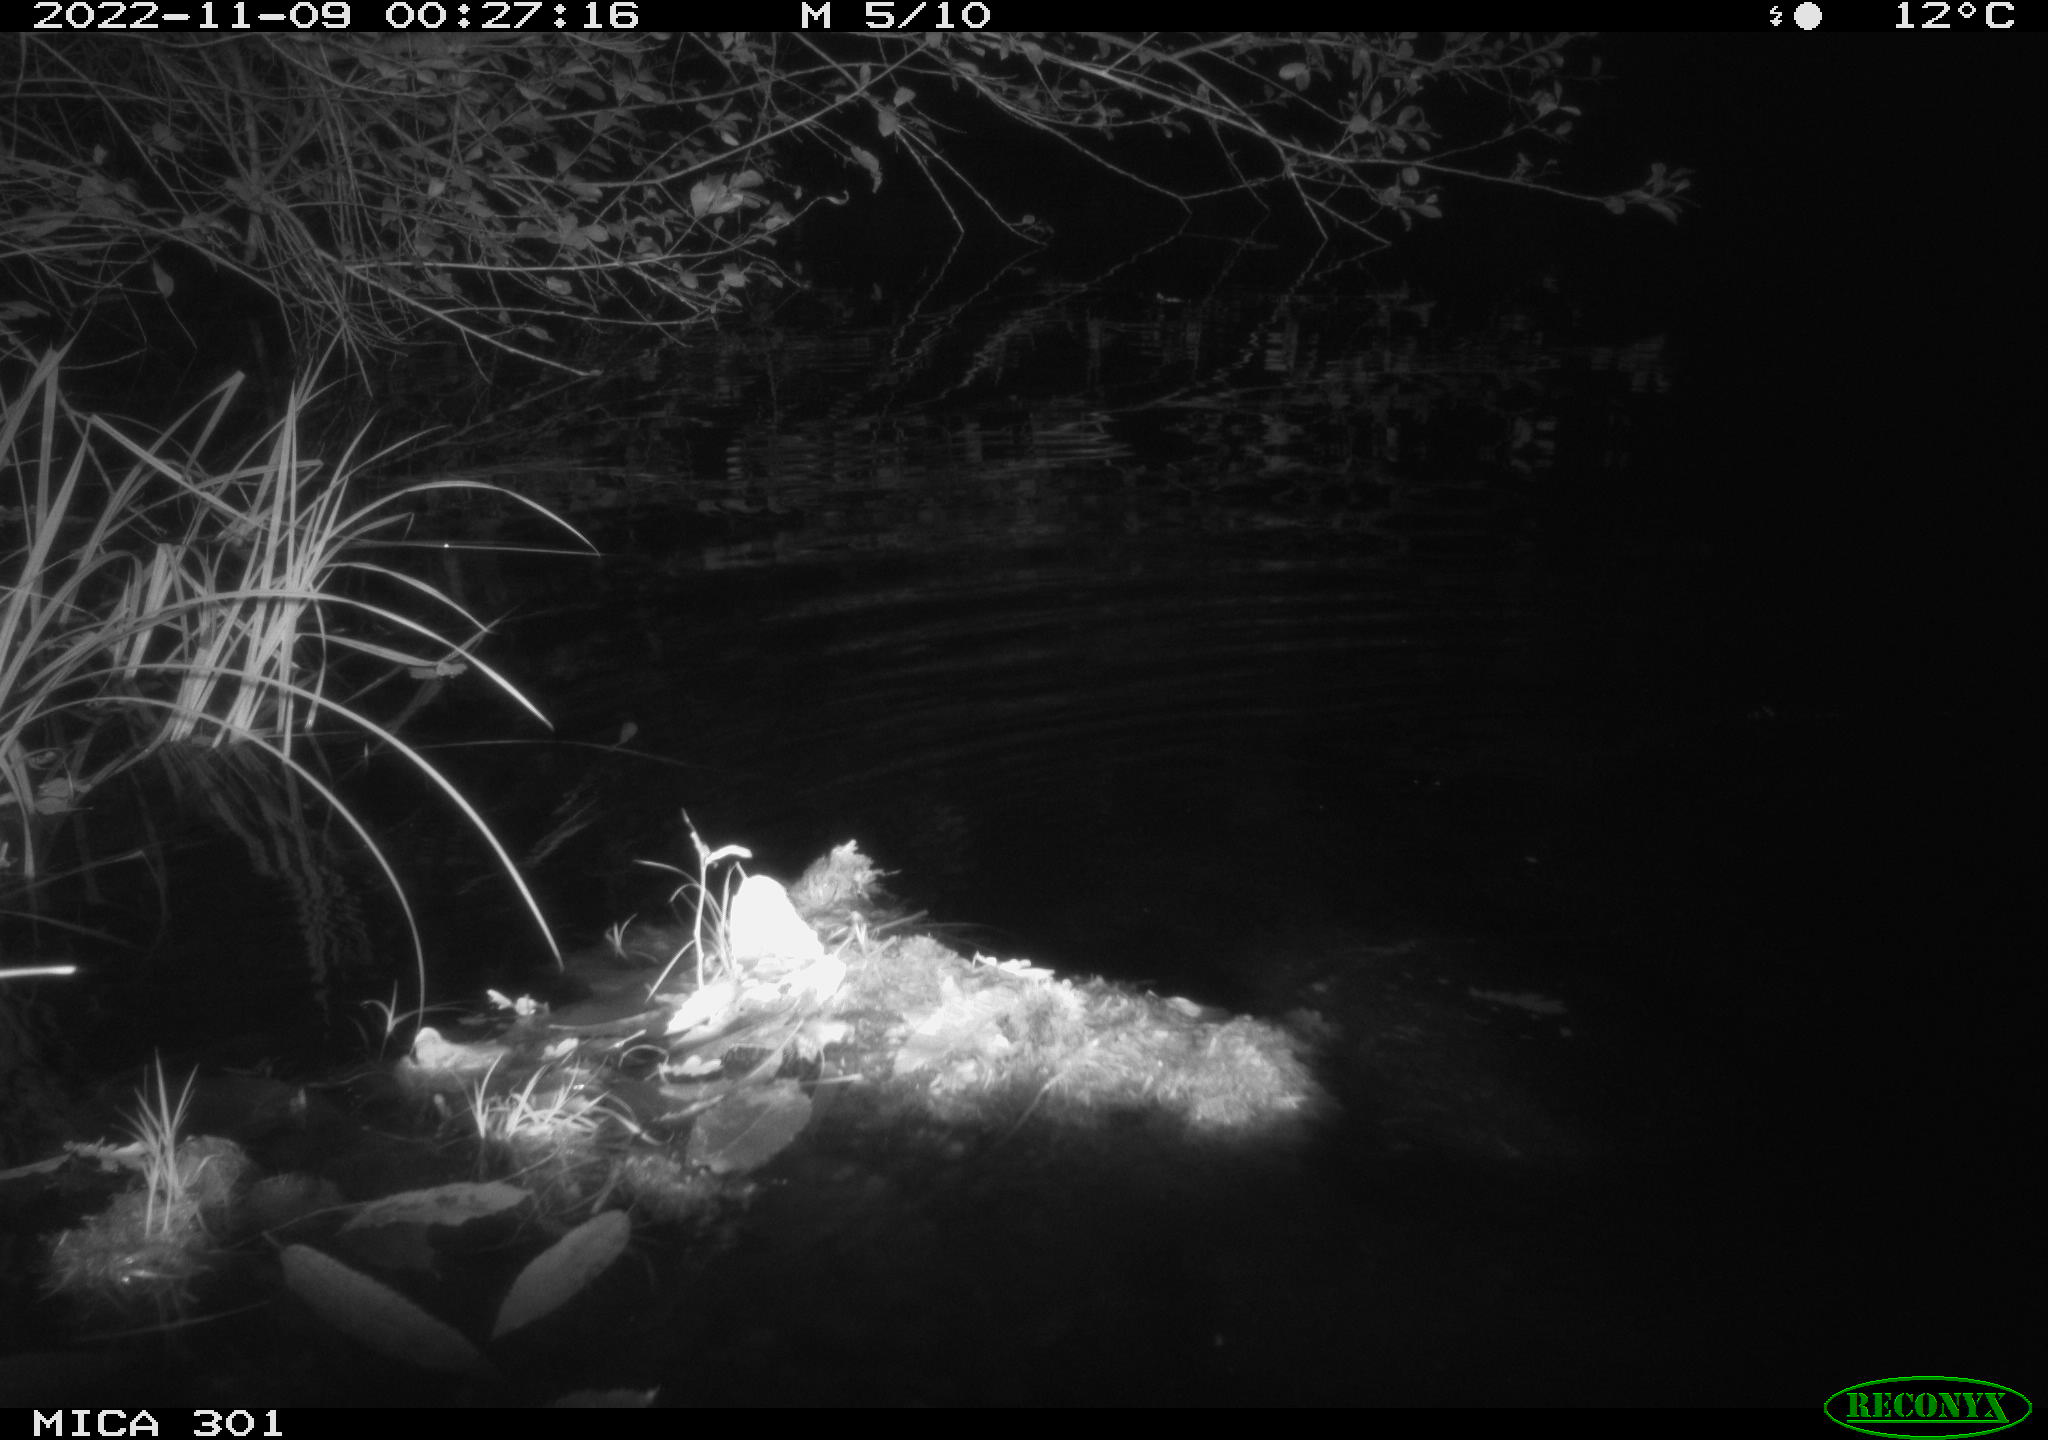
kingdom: Animalia
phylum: Chordata
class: Mammalia
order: Rodentia
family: Castoridae
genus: Castor
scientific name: Castor fiber
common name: Eurasian beaver
